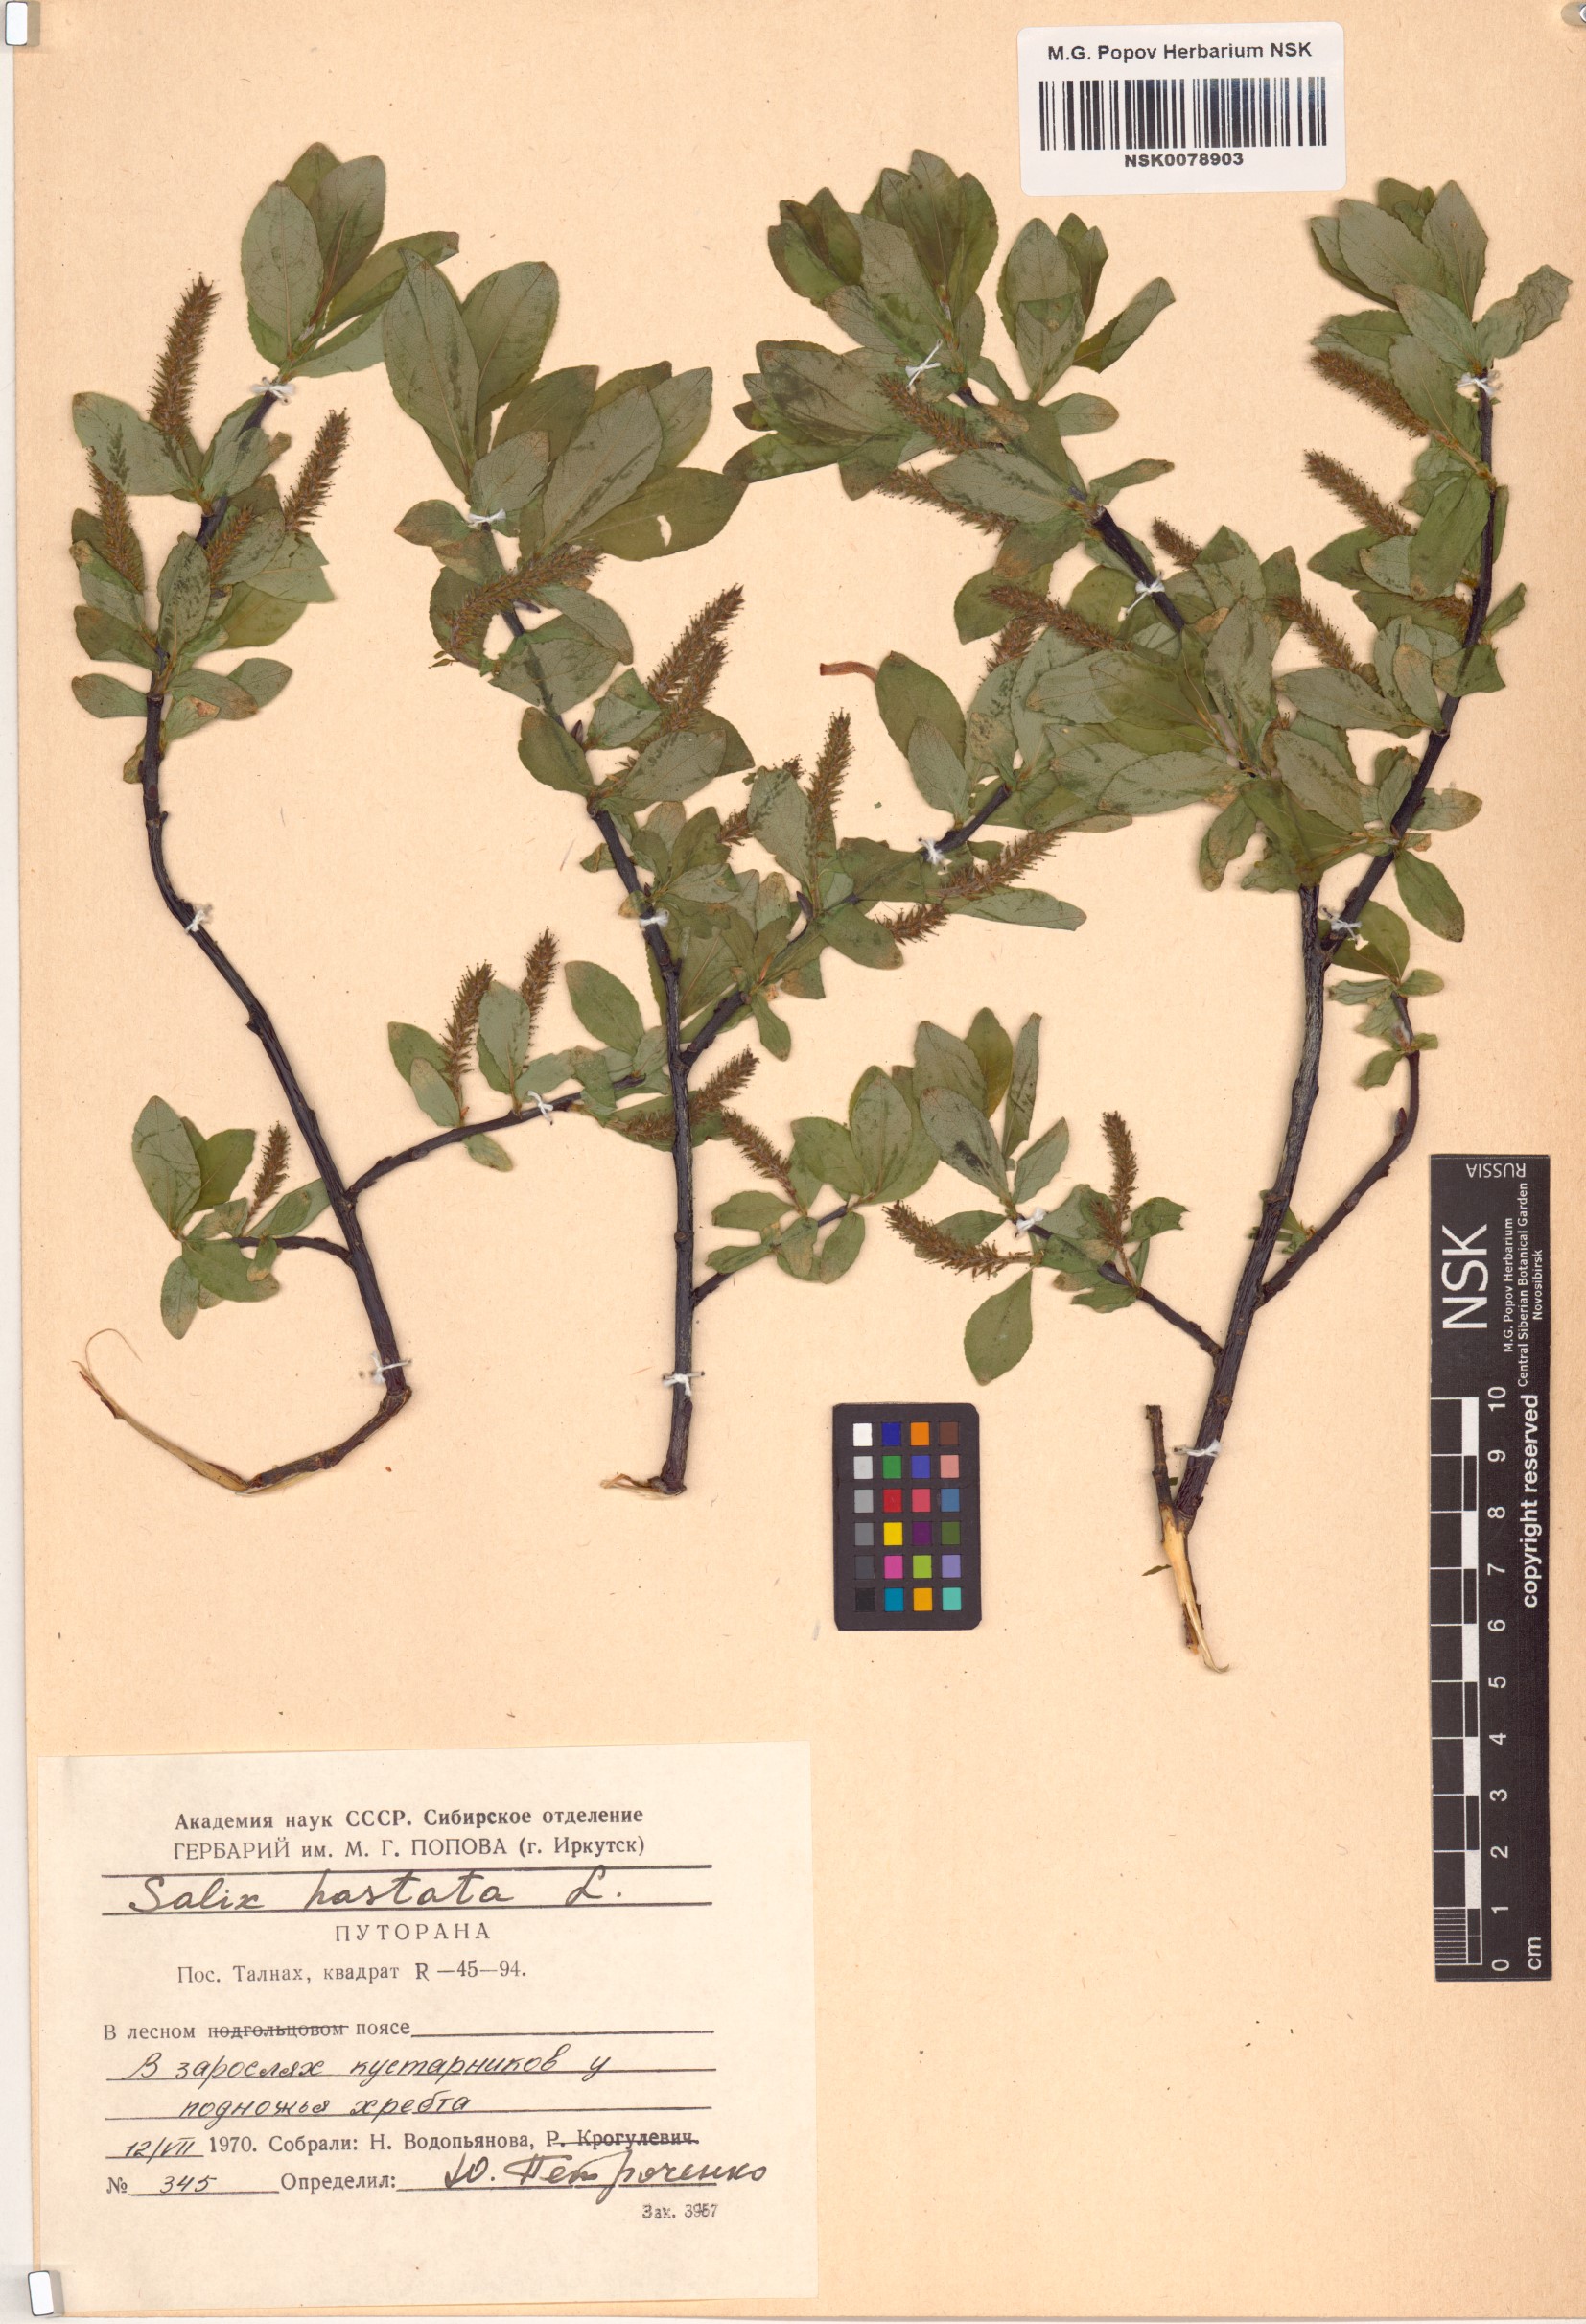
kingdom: Plantae
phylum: Tracheophyta
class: Magnoliopsida
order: Malpighiales
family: Salicaceae
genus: Salix
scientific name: Salix hastata
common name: Halberd willow
